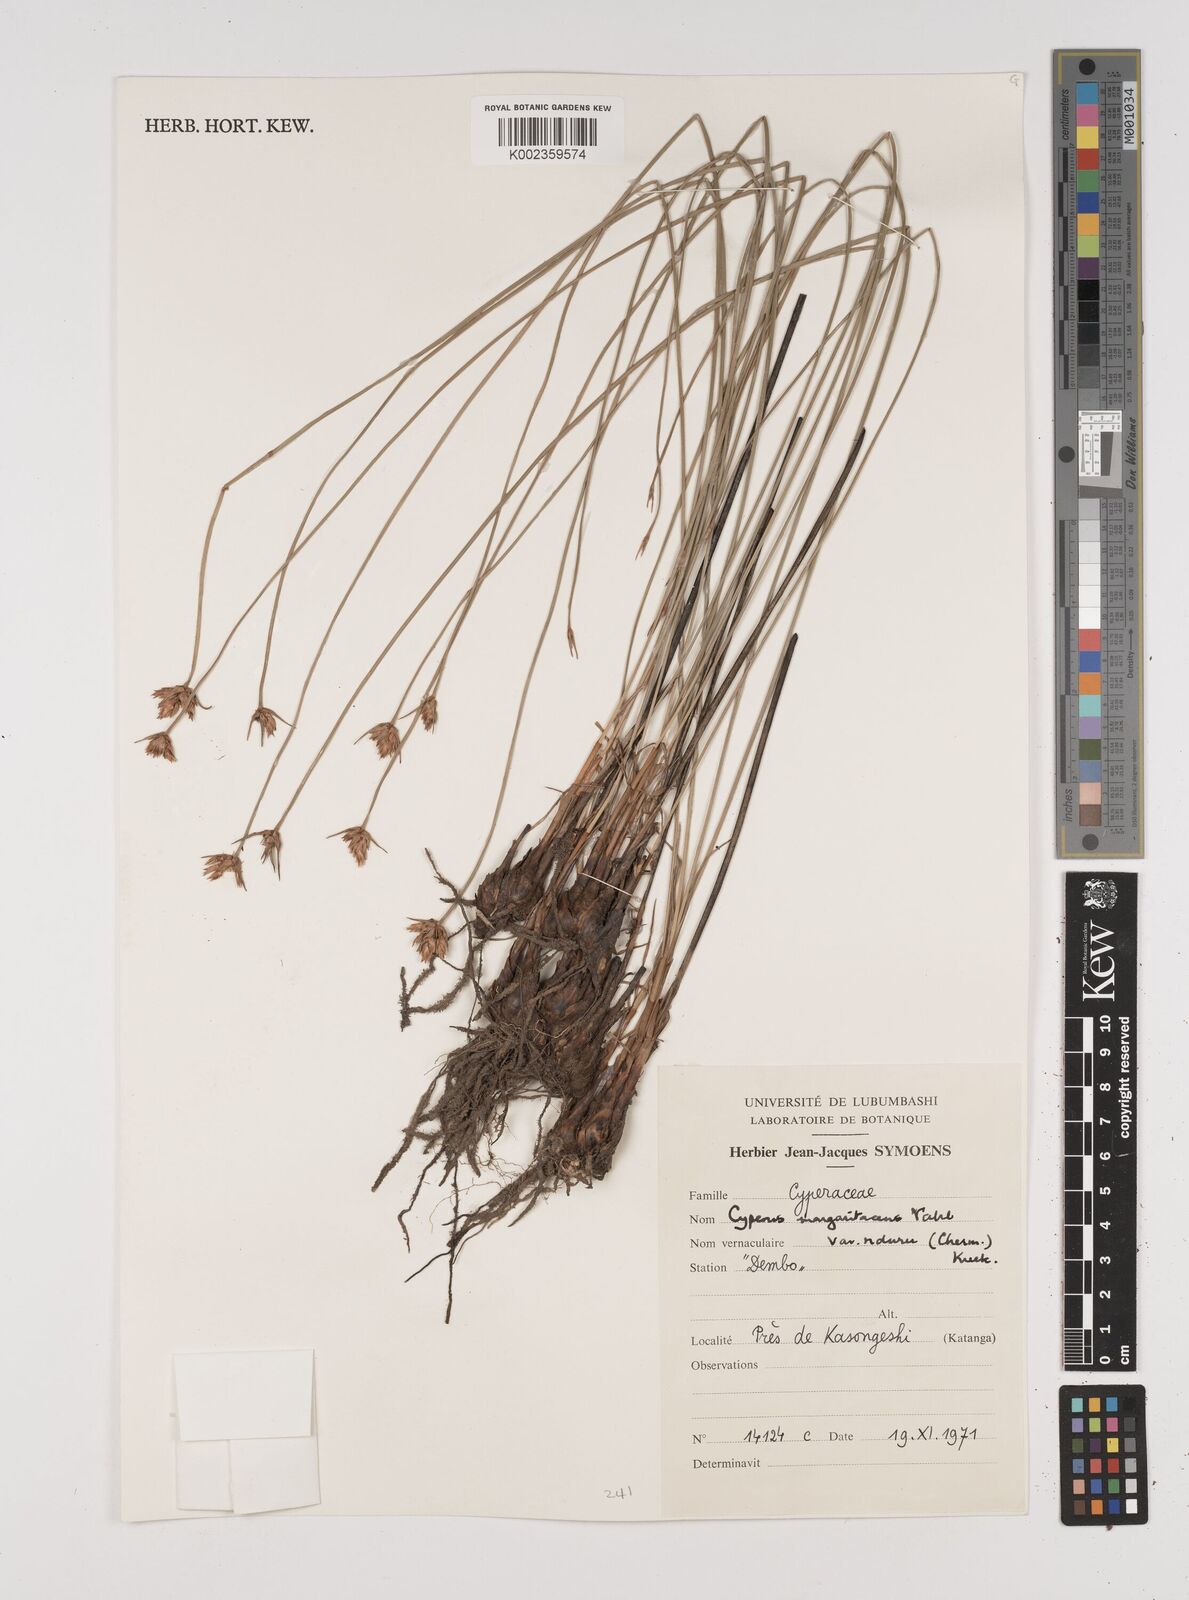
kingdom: Plantae
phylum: Tracheophyta
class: Liliopsida
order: Poales
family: Cyperaceae
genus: Cyperus
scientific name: Cyperus nduru
